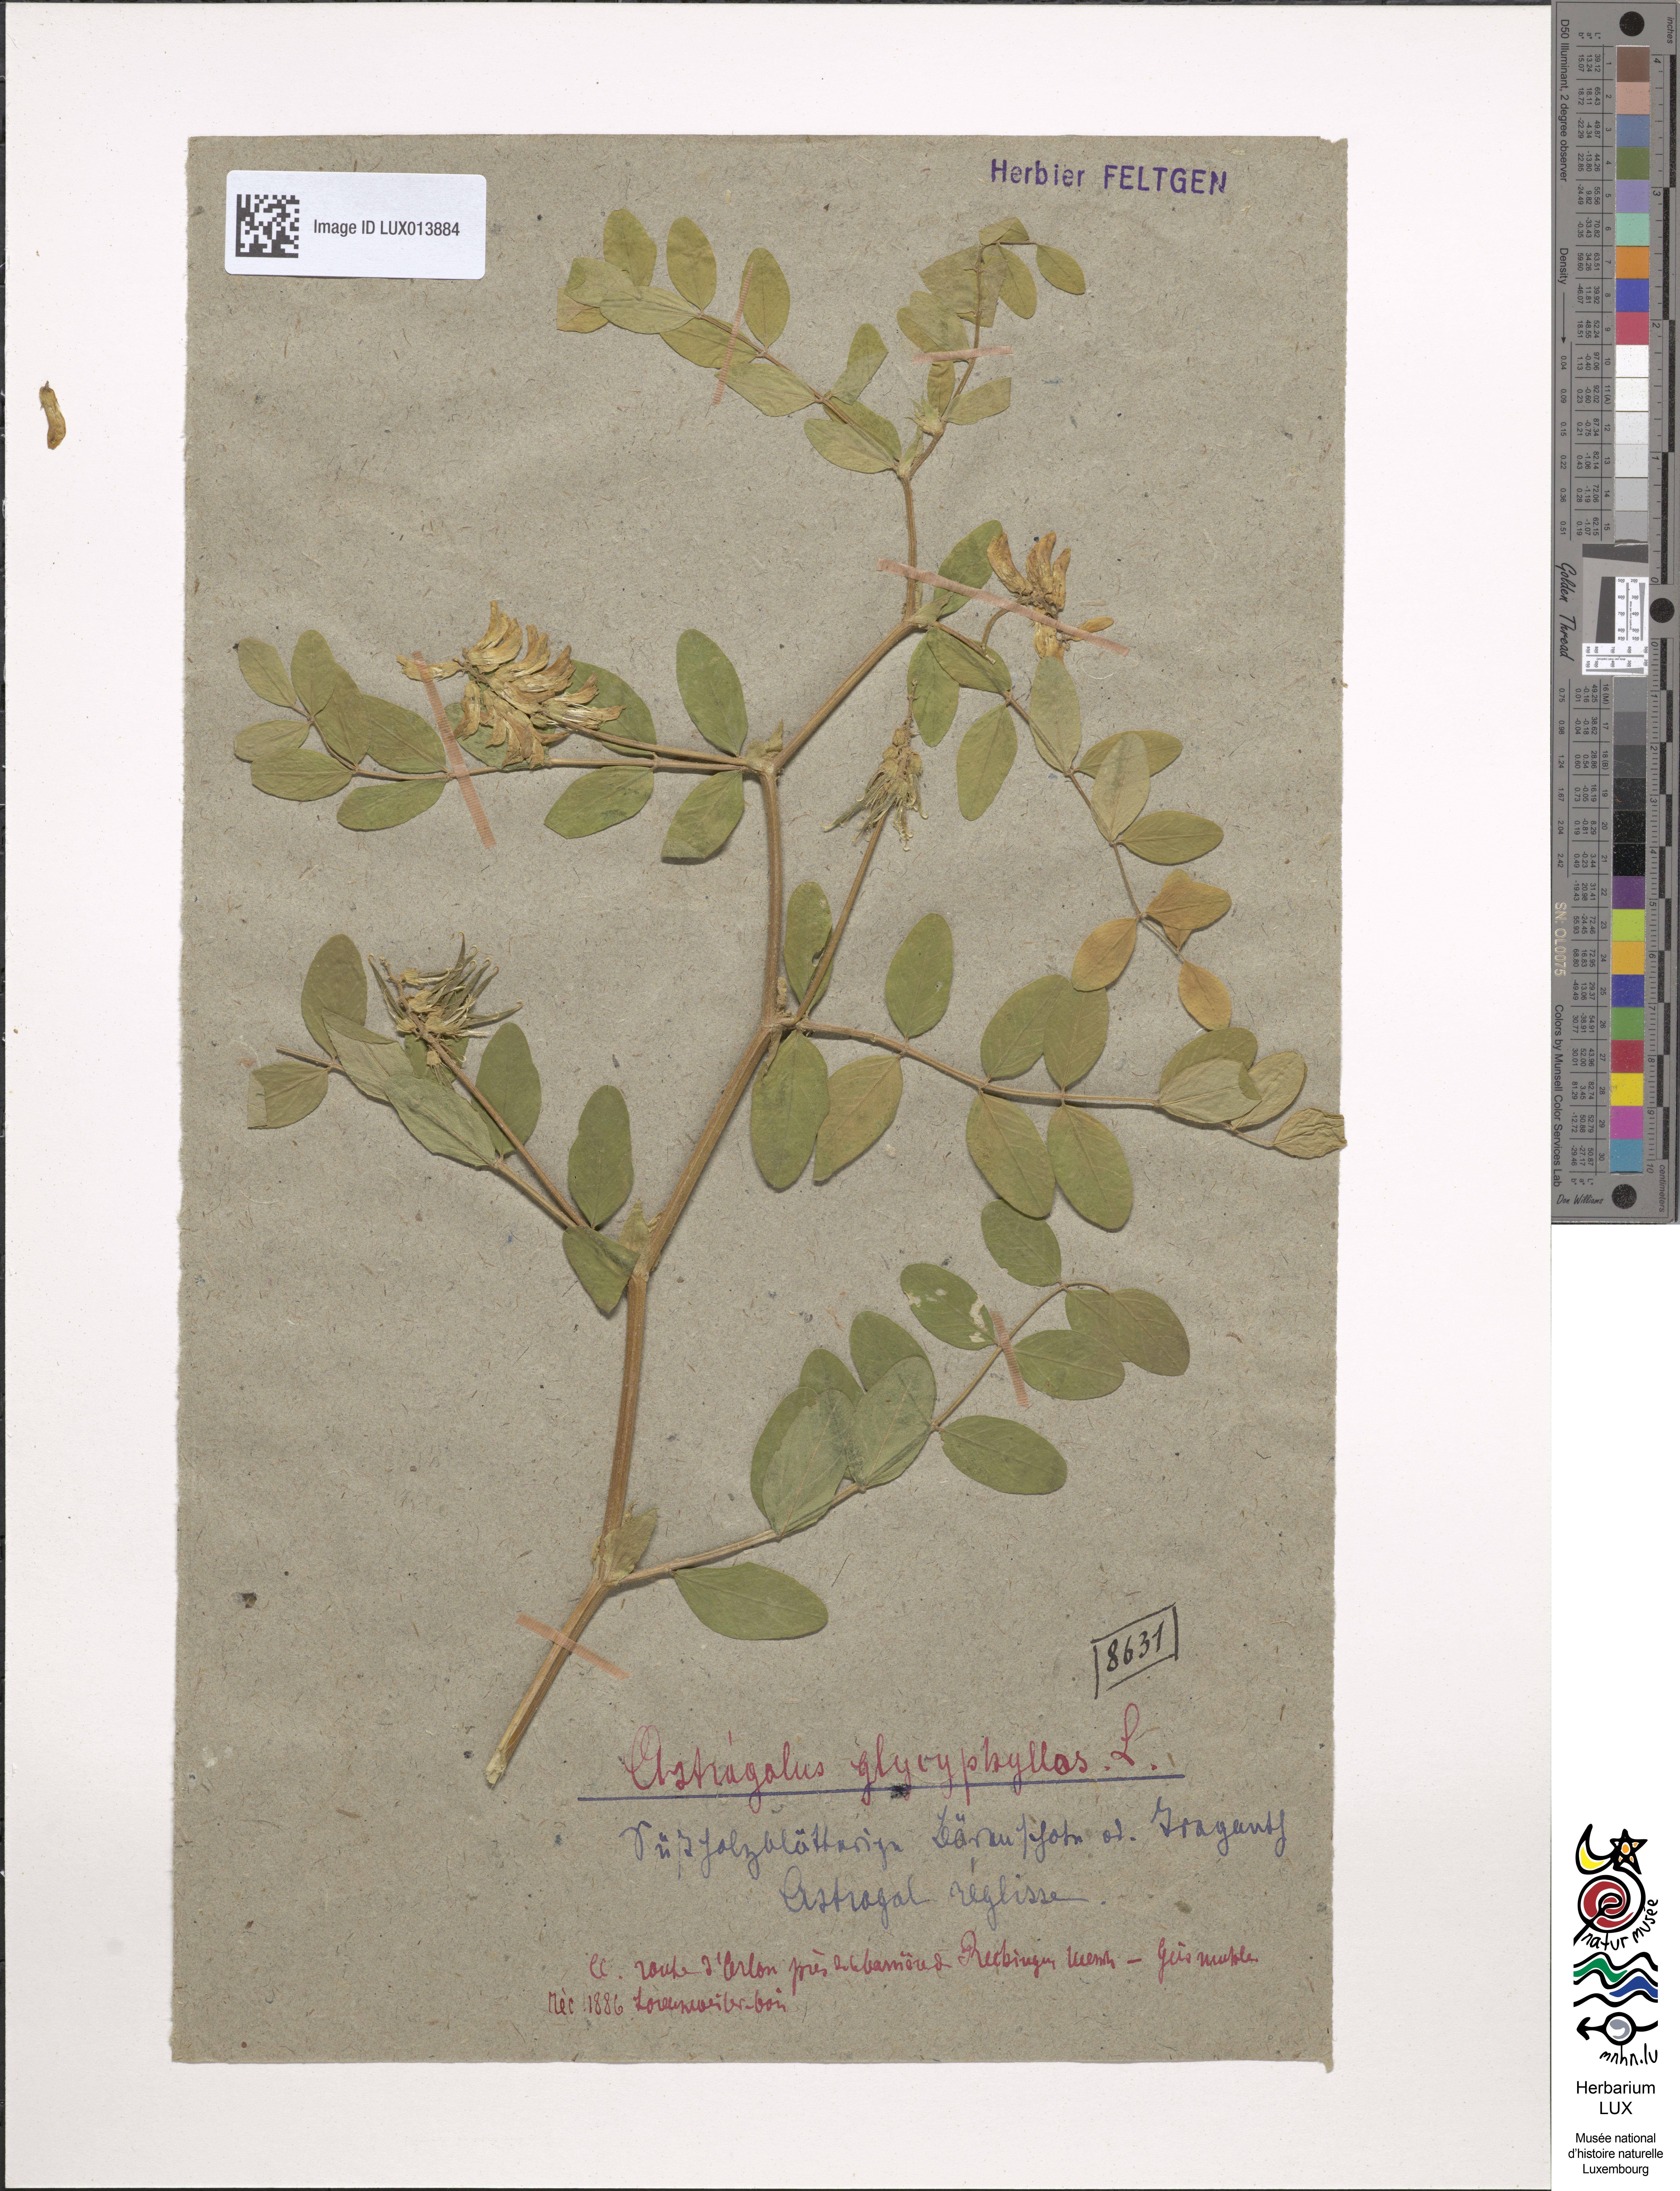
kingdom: Plantae
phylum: Tracheophyta
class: Magnoliopsida
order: Fabales
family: Fabaceae
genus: Astragalus
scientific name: Astragalus glycyphyllos
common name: Wild liquorice
